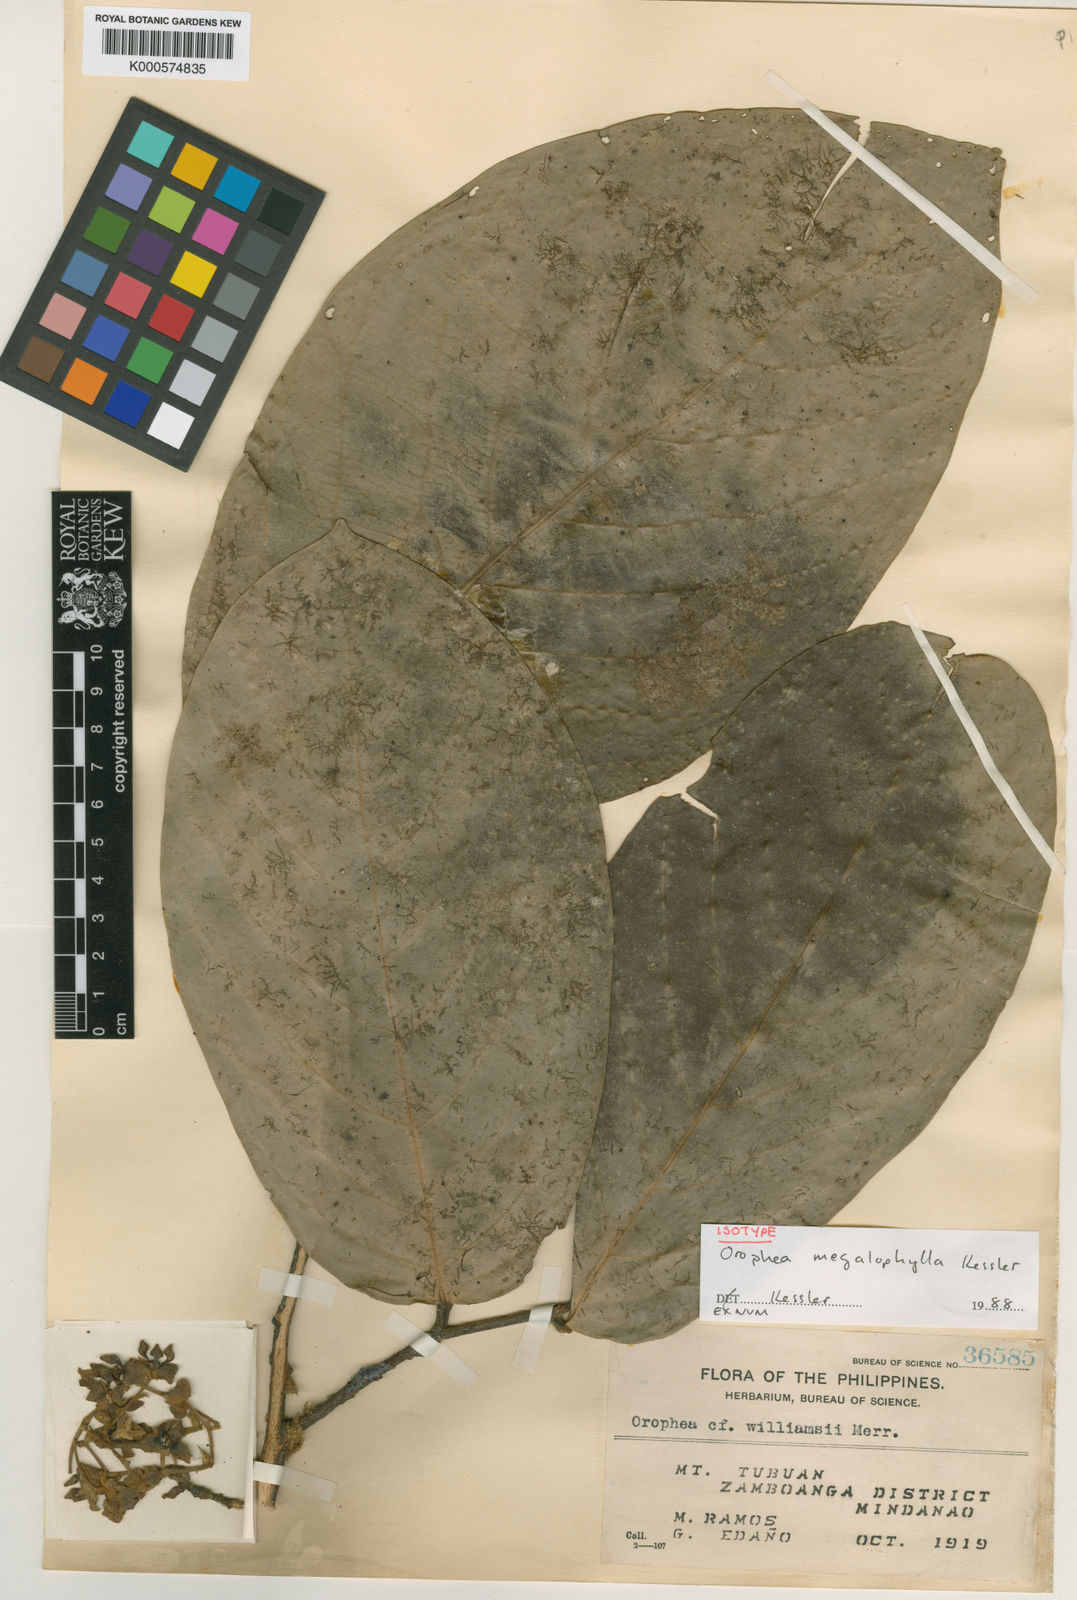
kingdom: Plantae
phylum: Tracheophyta
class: Magnoliopsida
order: Magnoliales
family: Annonaceae
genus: Orophea
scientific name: Orophea megalophylla
